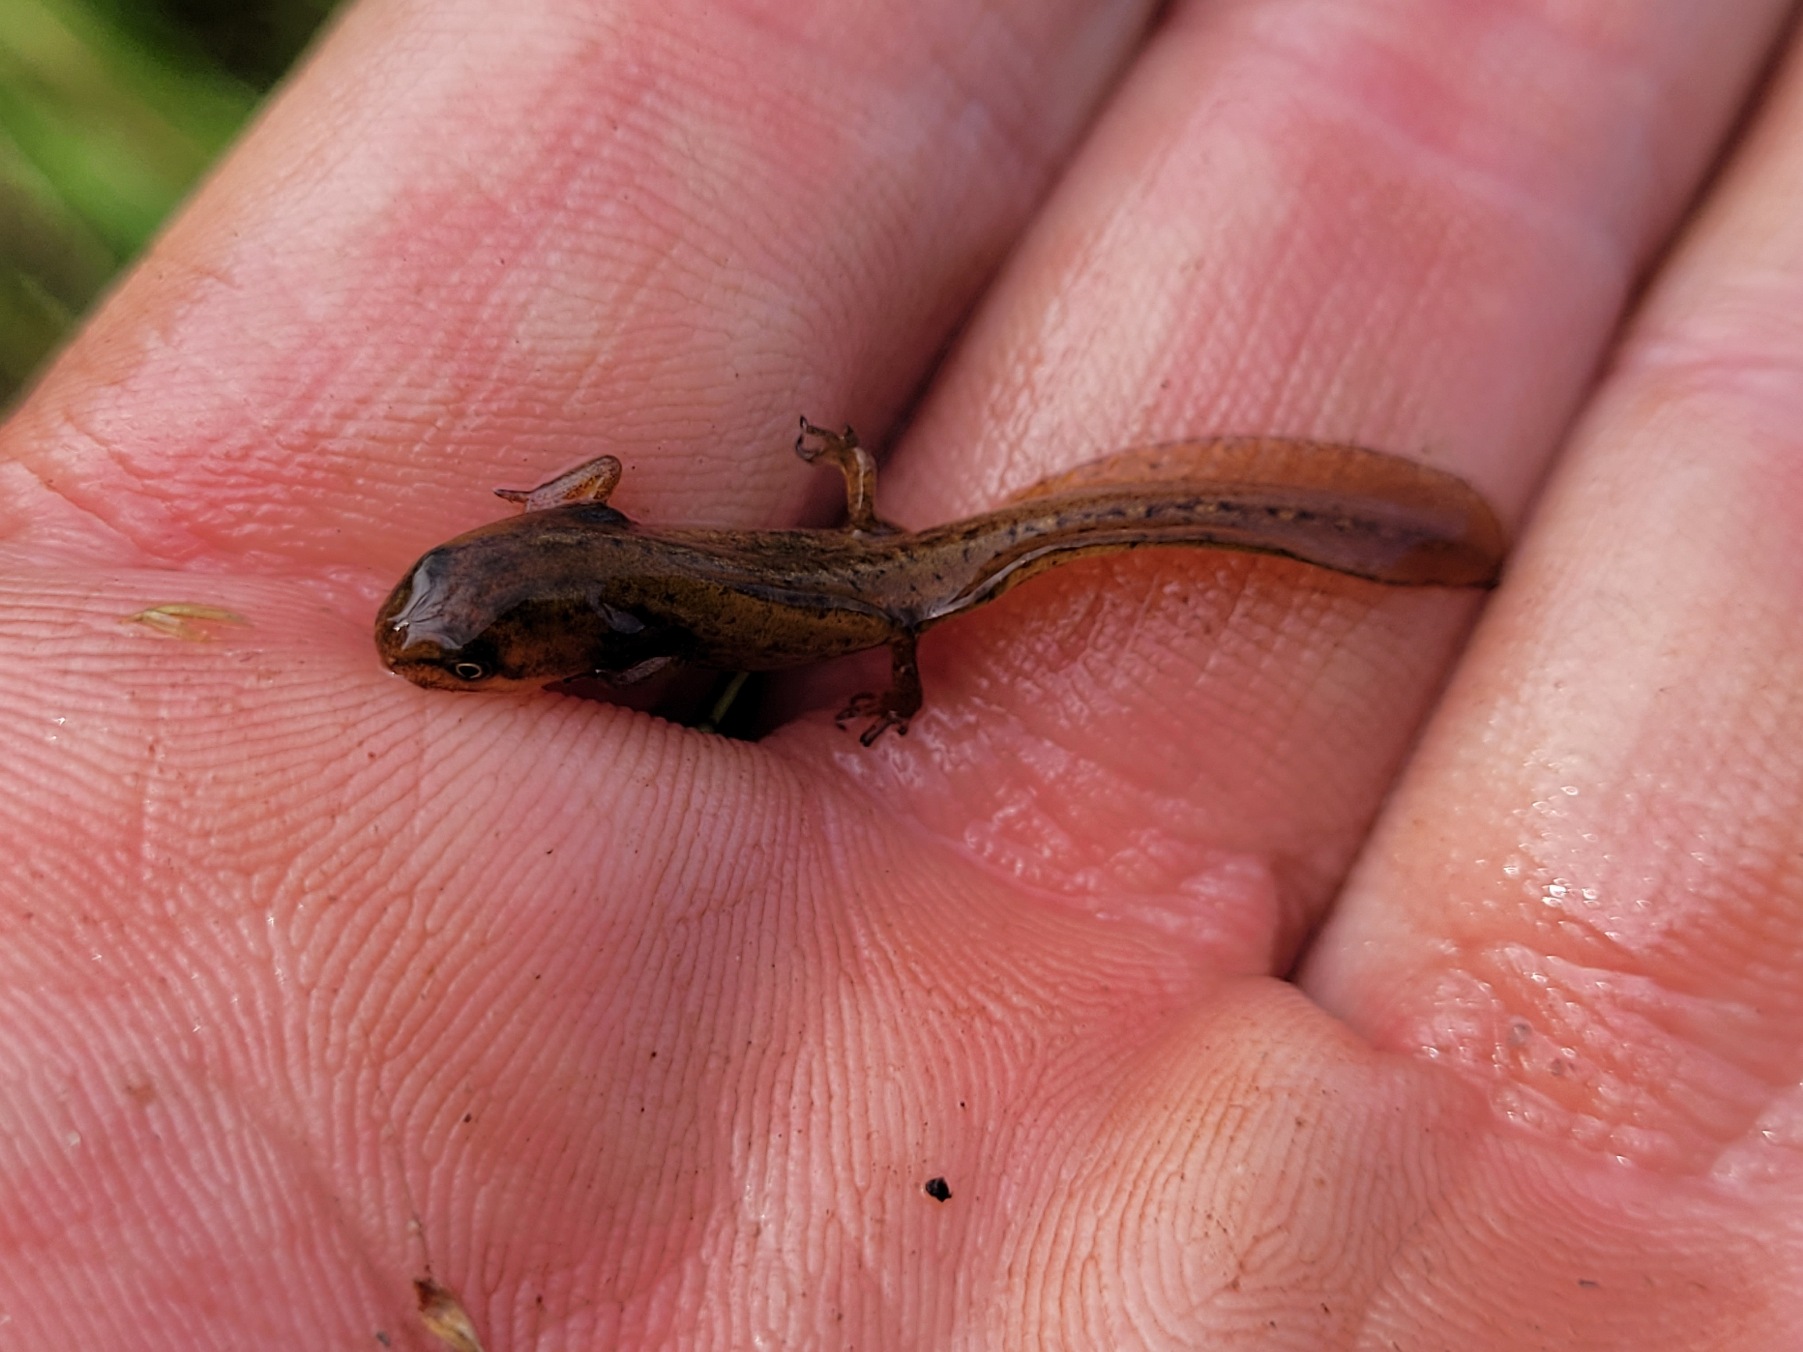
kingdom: Animalia
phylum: Chordata
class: Amphibia
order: Caudata
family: Salamandridae
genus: Lissotriton
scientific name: Lissotriton vulgaris
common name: Lille vandsalamander
